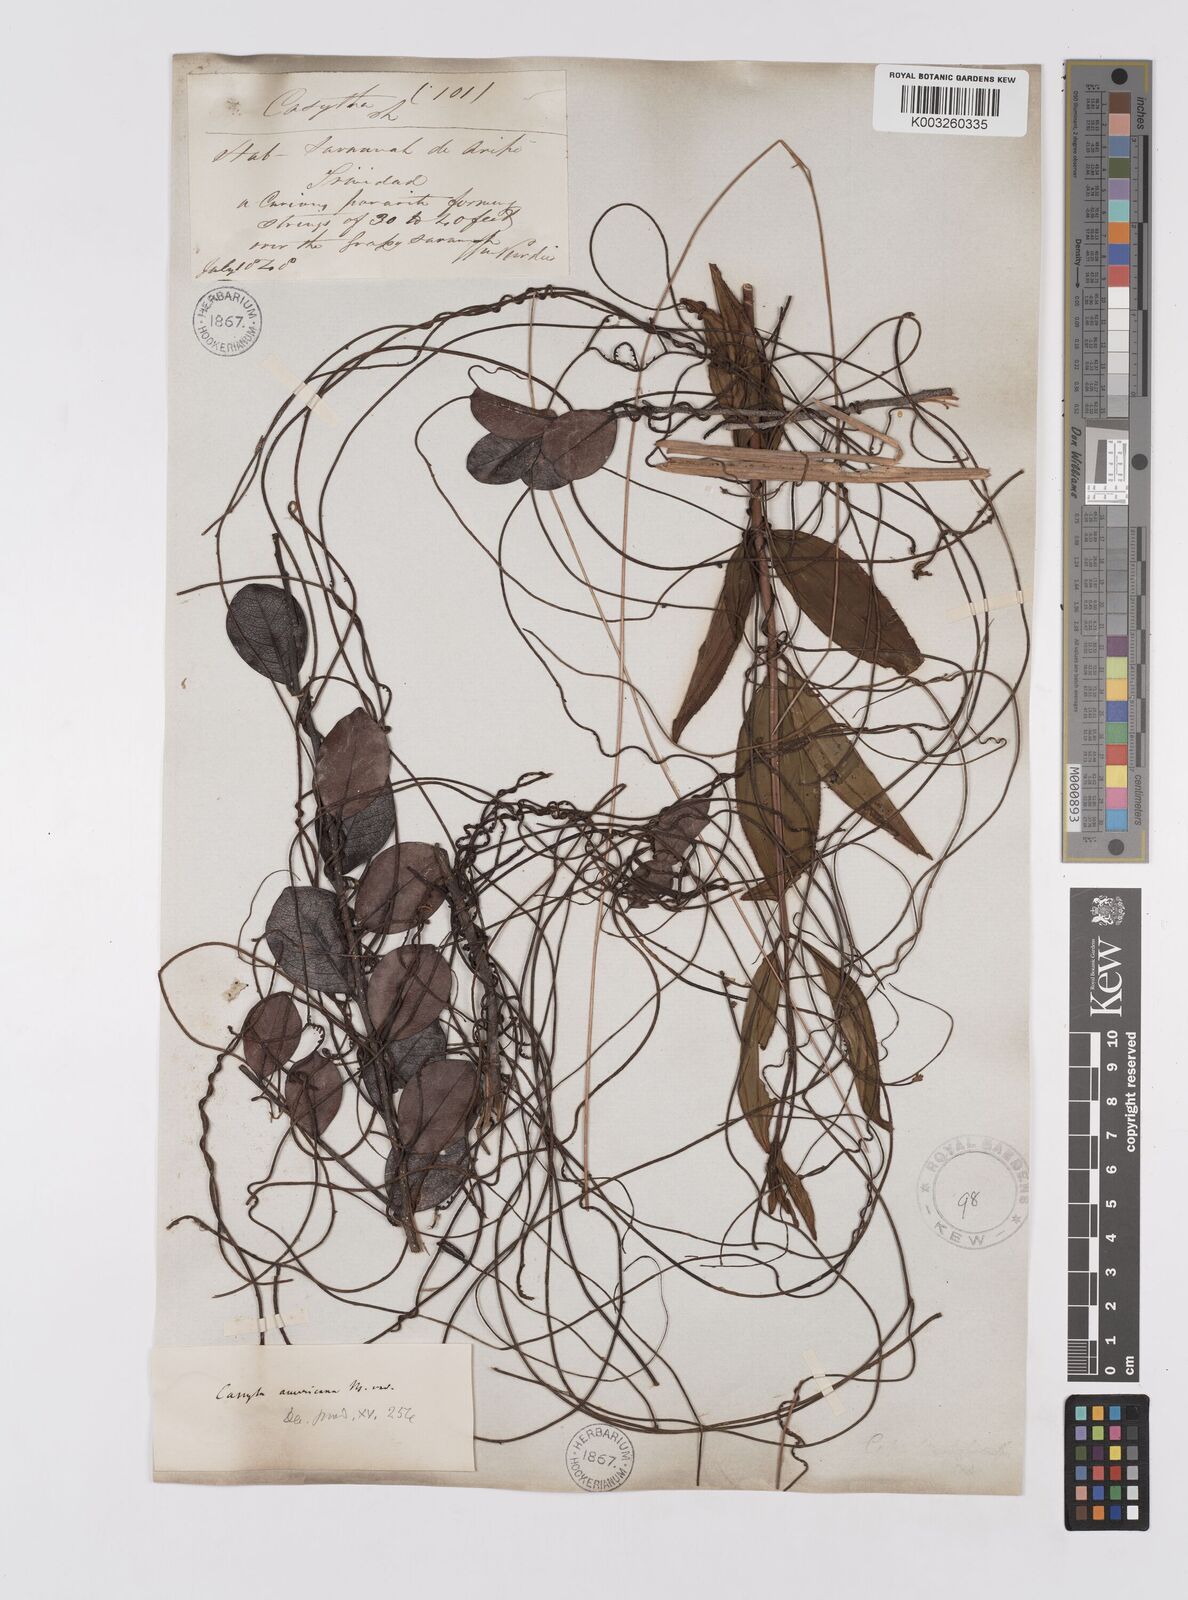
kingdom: Plantae
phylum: Tracheophyta
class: Magnoliopsida
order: Laurales
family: Lauraceae
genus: Cassytha
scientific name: Cassytha filiformis
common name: Dodder-laurel
